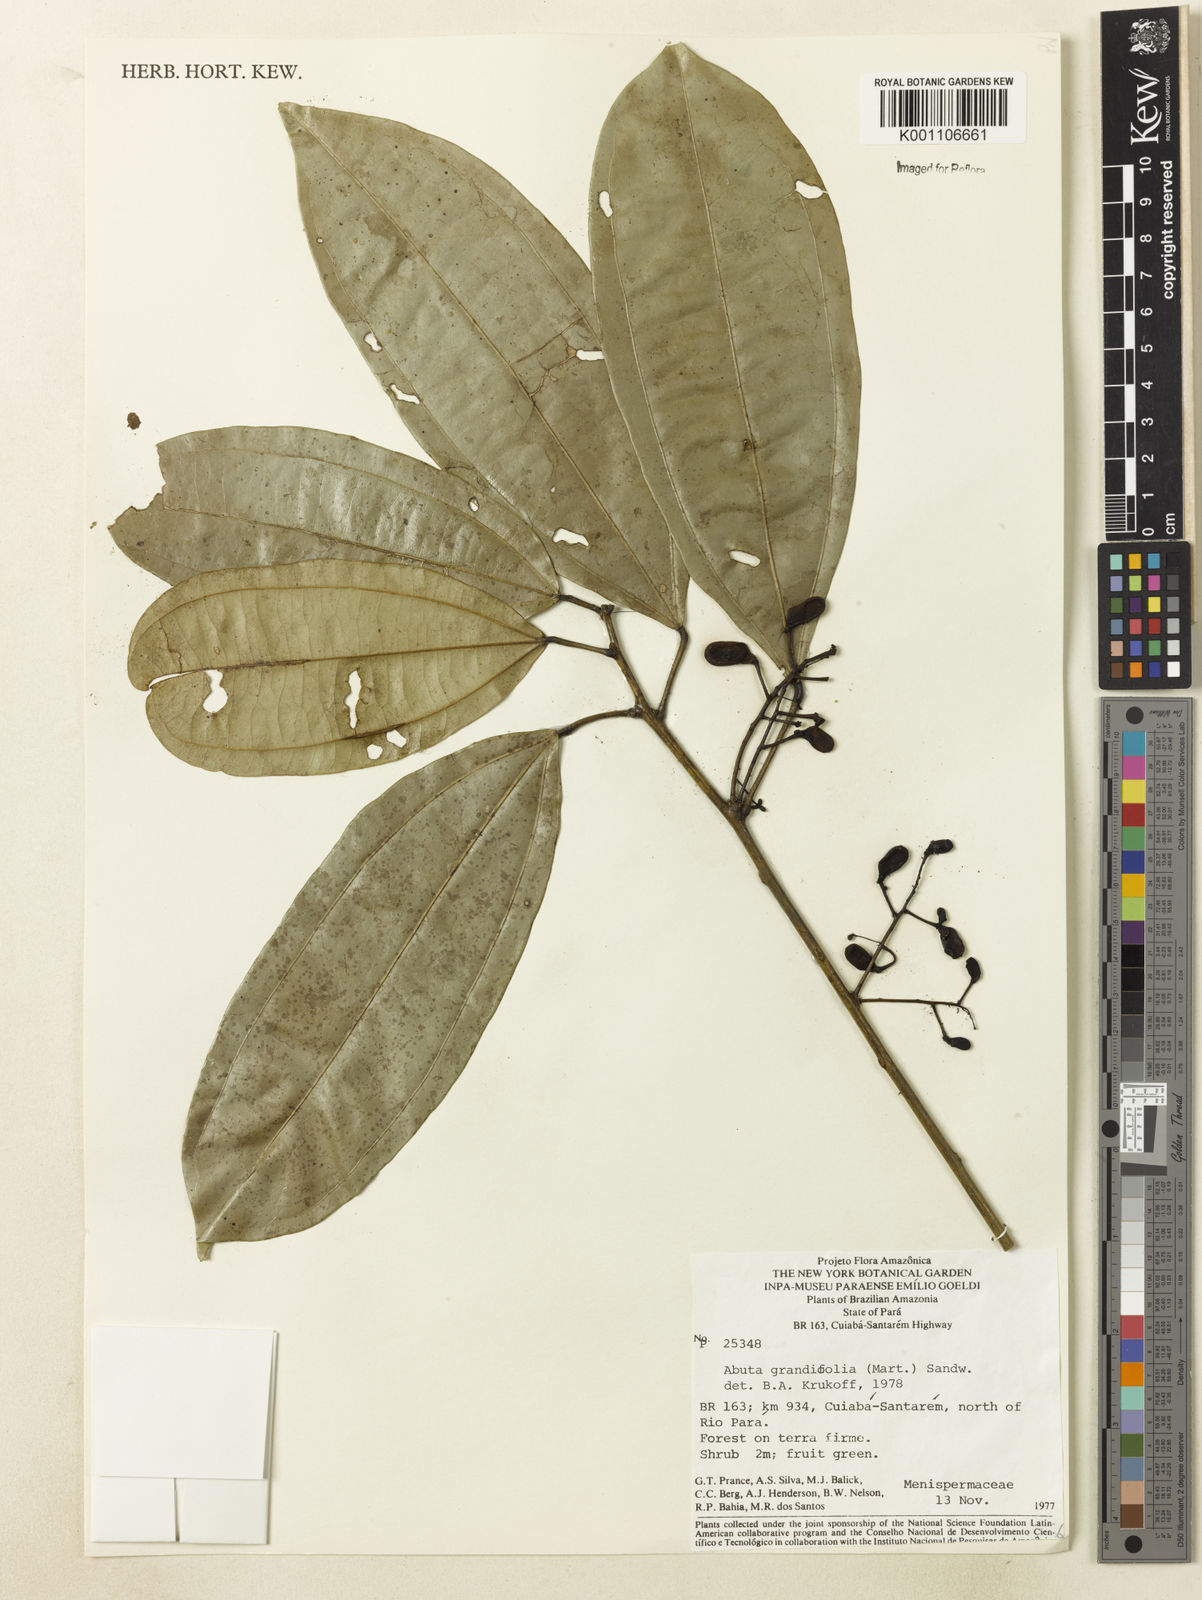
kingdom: Plantae
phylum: Tracheophyta
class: Magnoliopsida
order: Ranunculales
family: Menispermaceae
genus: Abuta
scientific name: Abuta grandifolia
